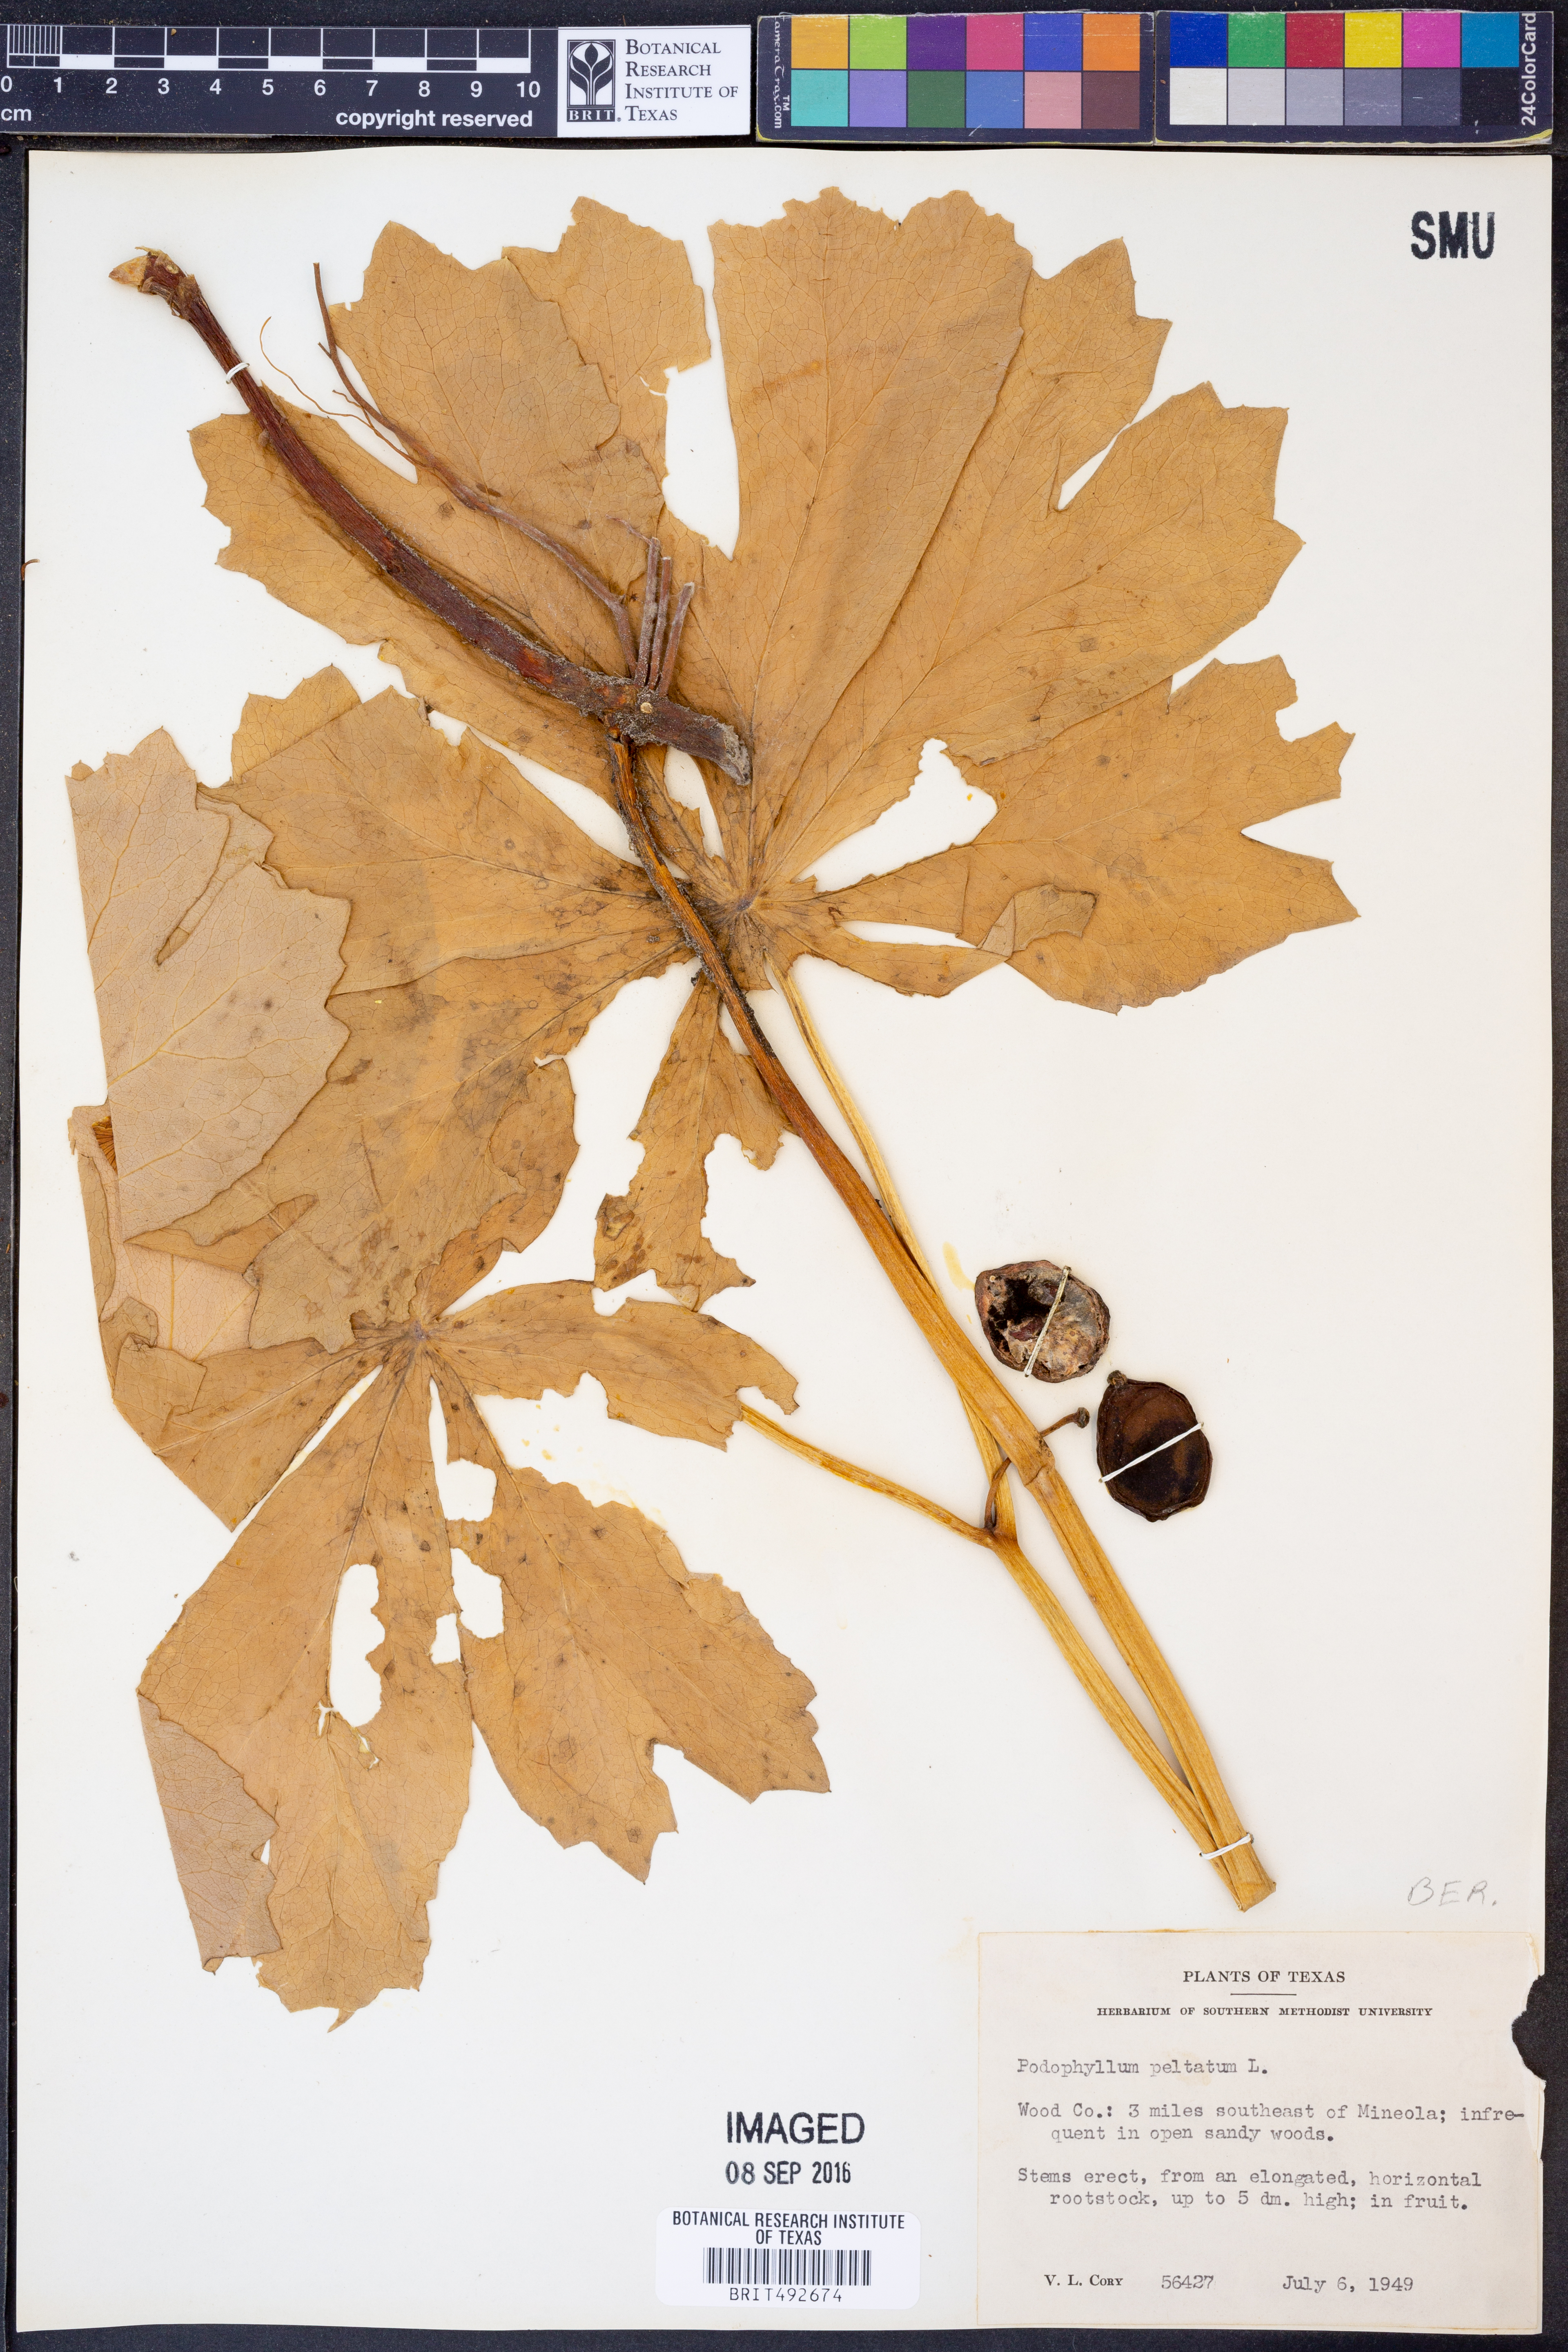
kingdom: Plantae
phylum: Tracheophyta
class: Magnoliopsida
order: Ranunculales
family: Berberidaceae
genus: Podophyllum
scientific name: Podophyllum peltatum
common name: Wild mandrake
